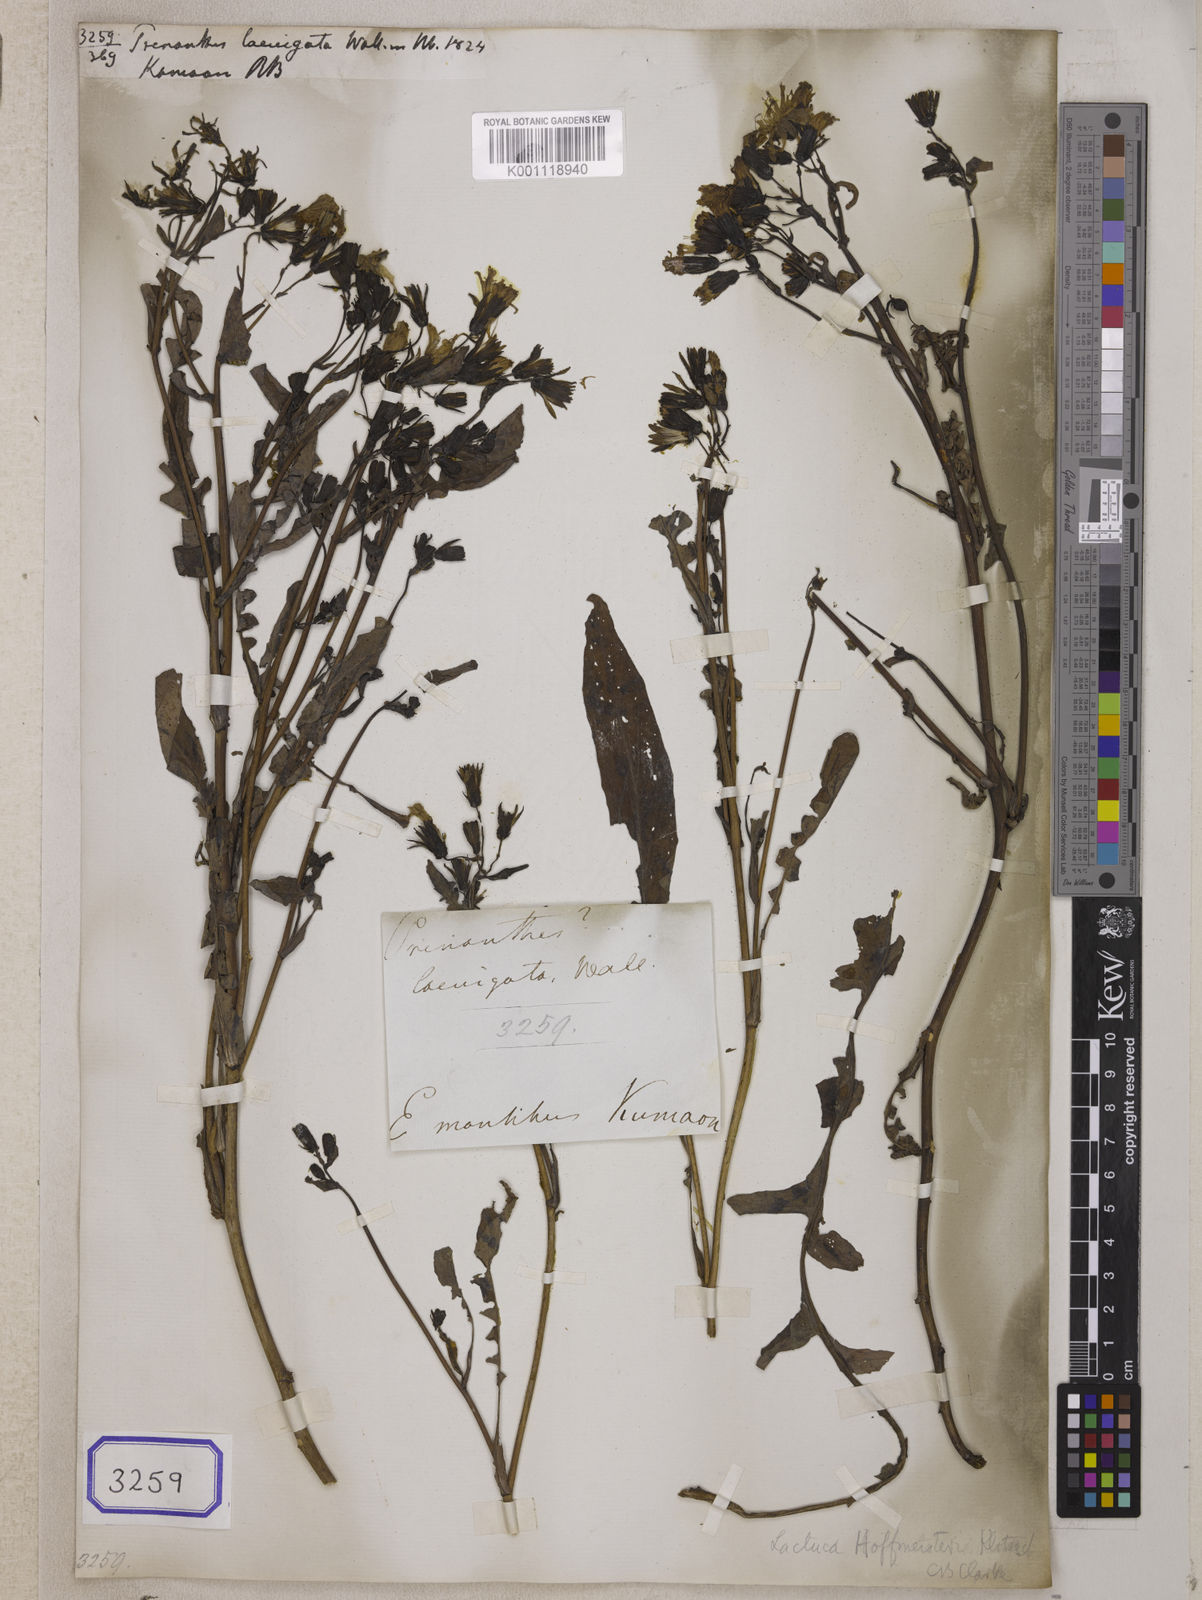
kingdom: Plantae
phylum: Tracheophyta
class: Magnoliopsida
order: Asterales
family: Asteraceae
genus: Prenanthes
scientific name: Prenanthes
